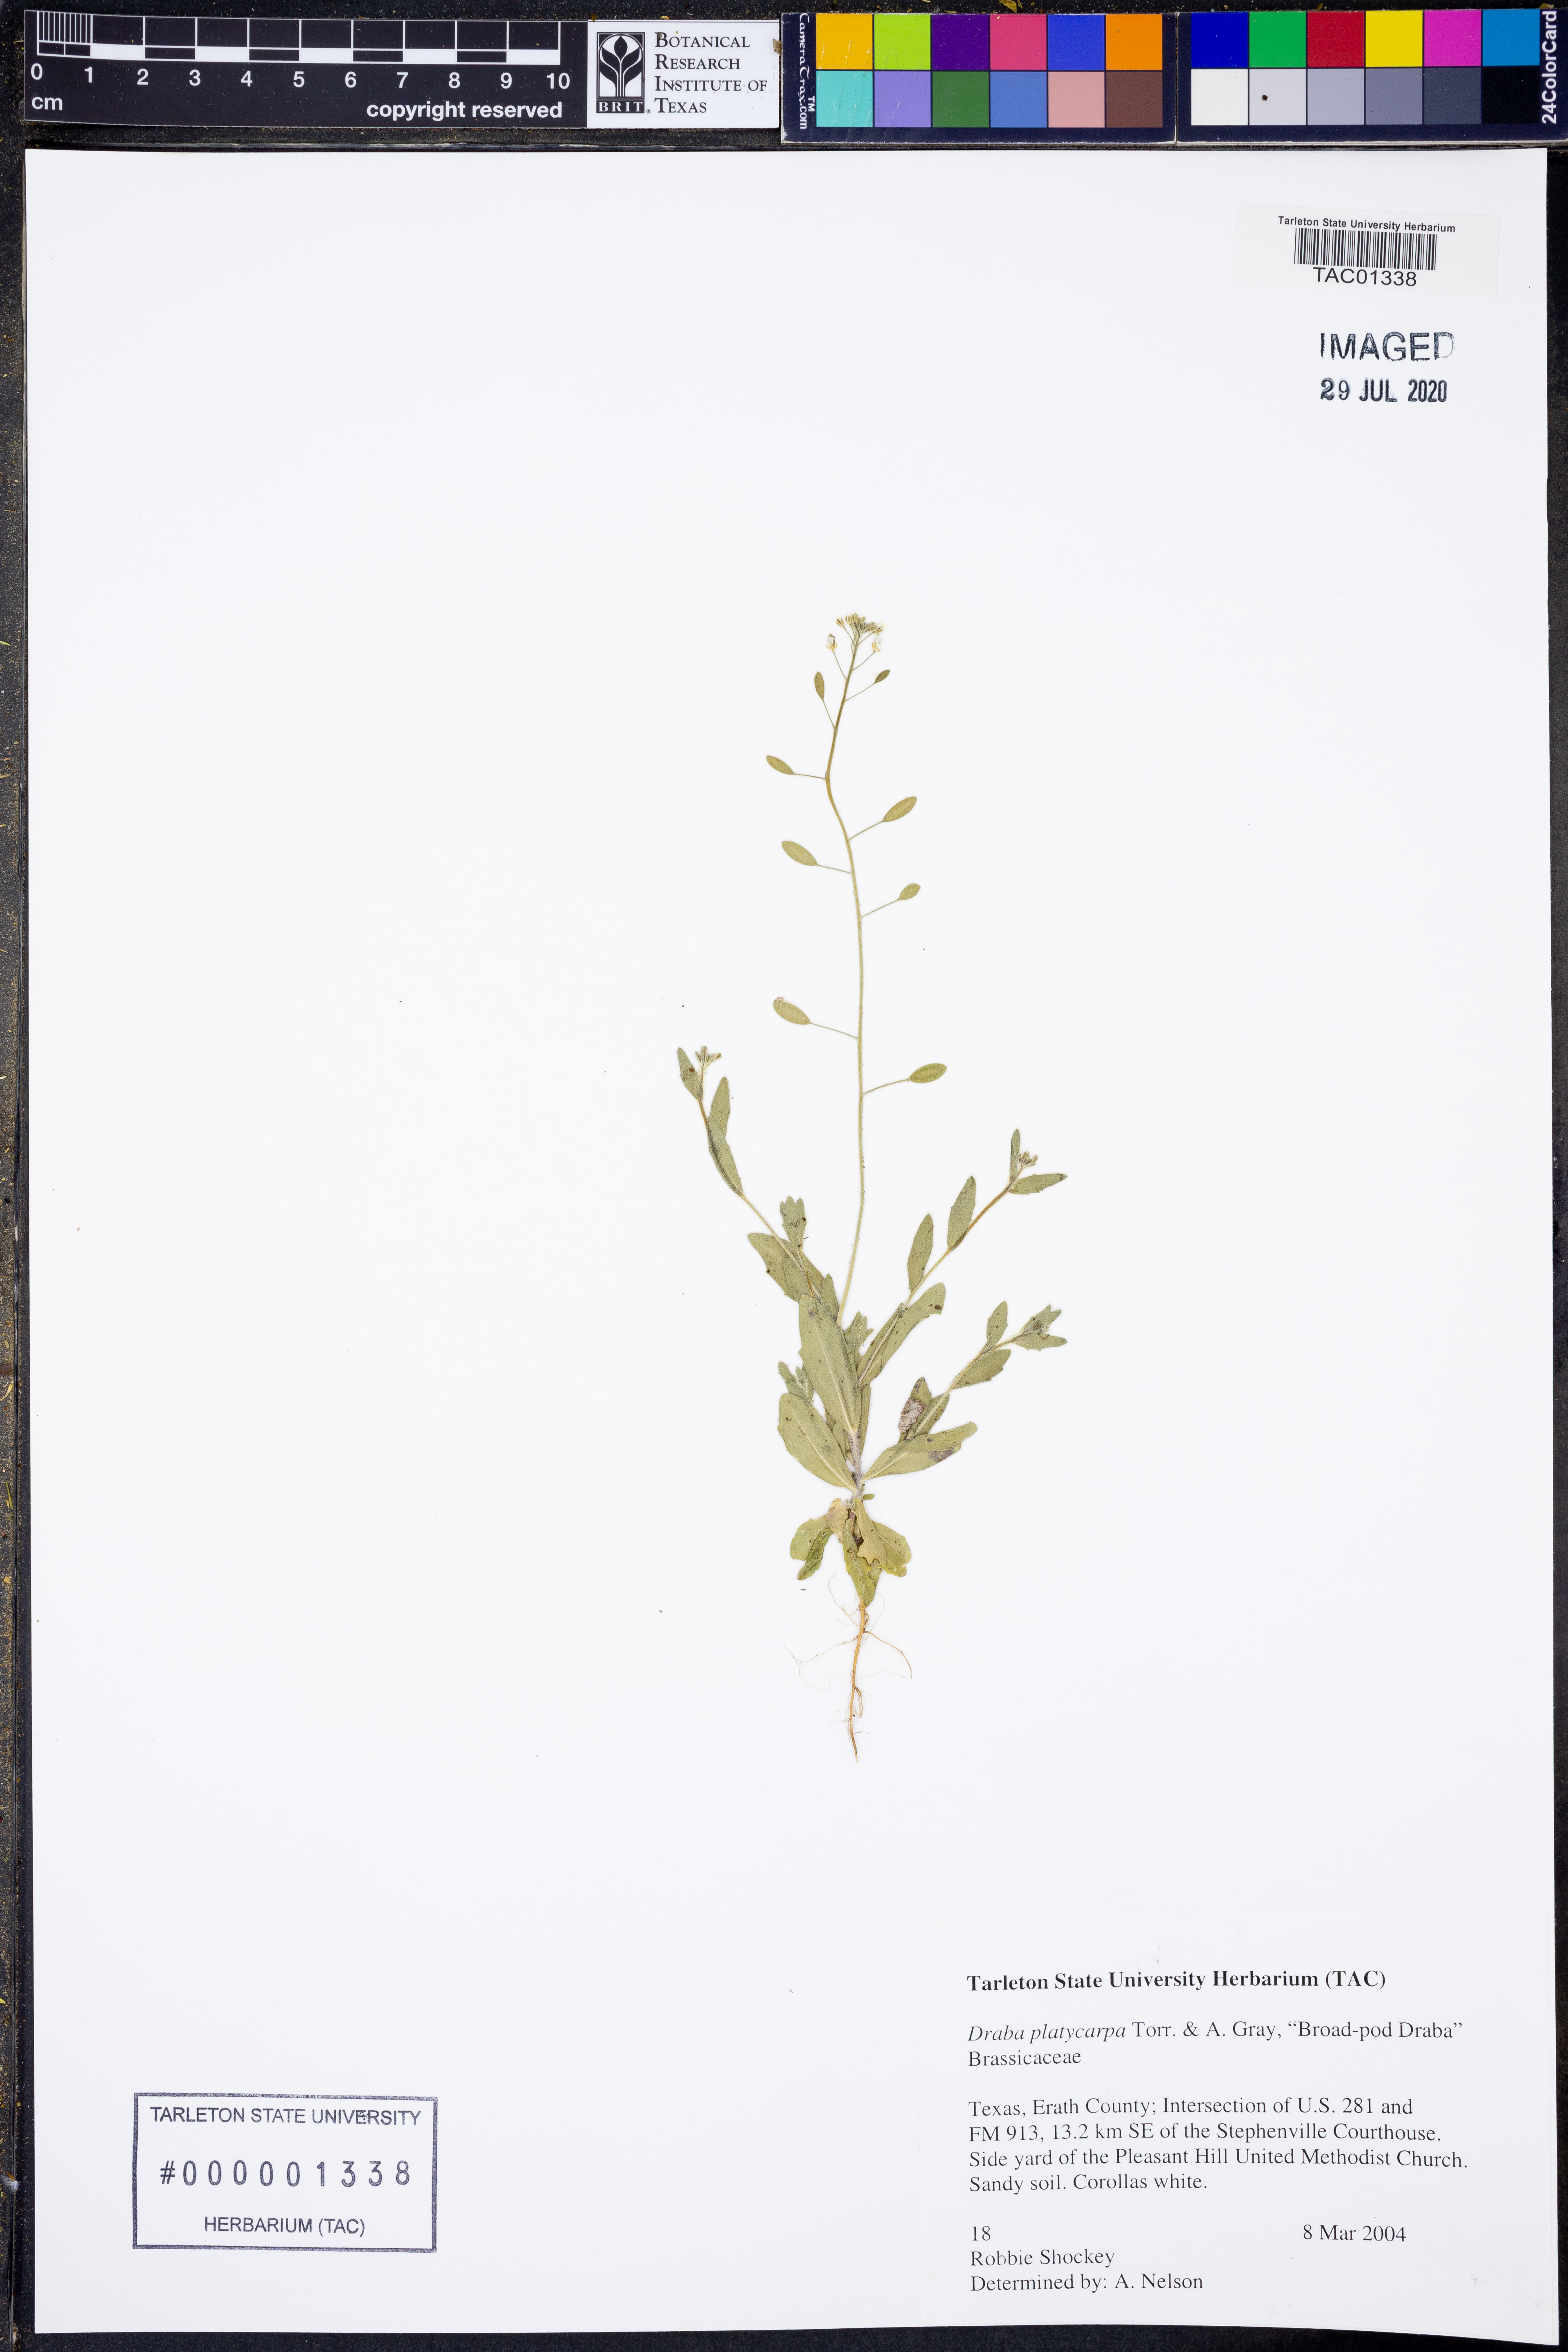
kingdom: Plantae
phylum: Tracheophyta
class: Magnoliopsida
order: Brassicales
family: Brassicaceae
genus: Tomostima
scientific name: Tomostima platycarpa
